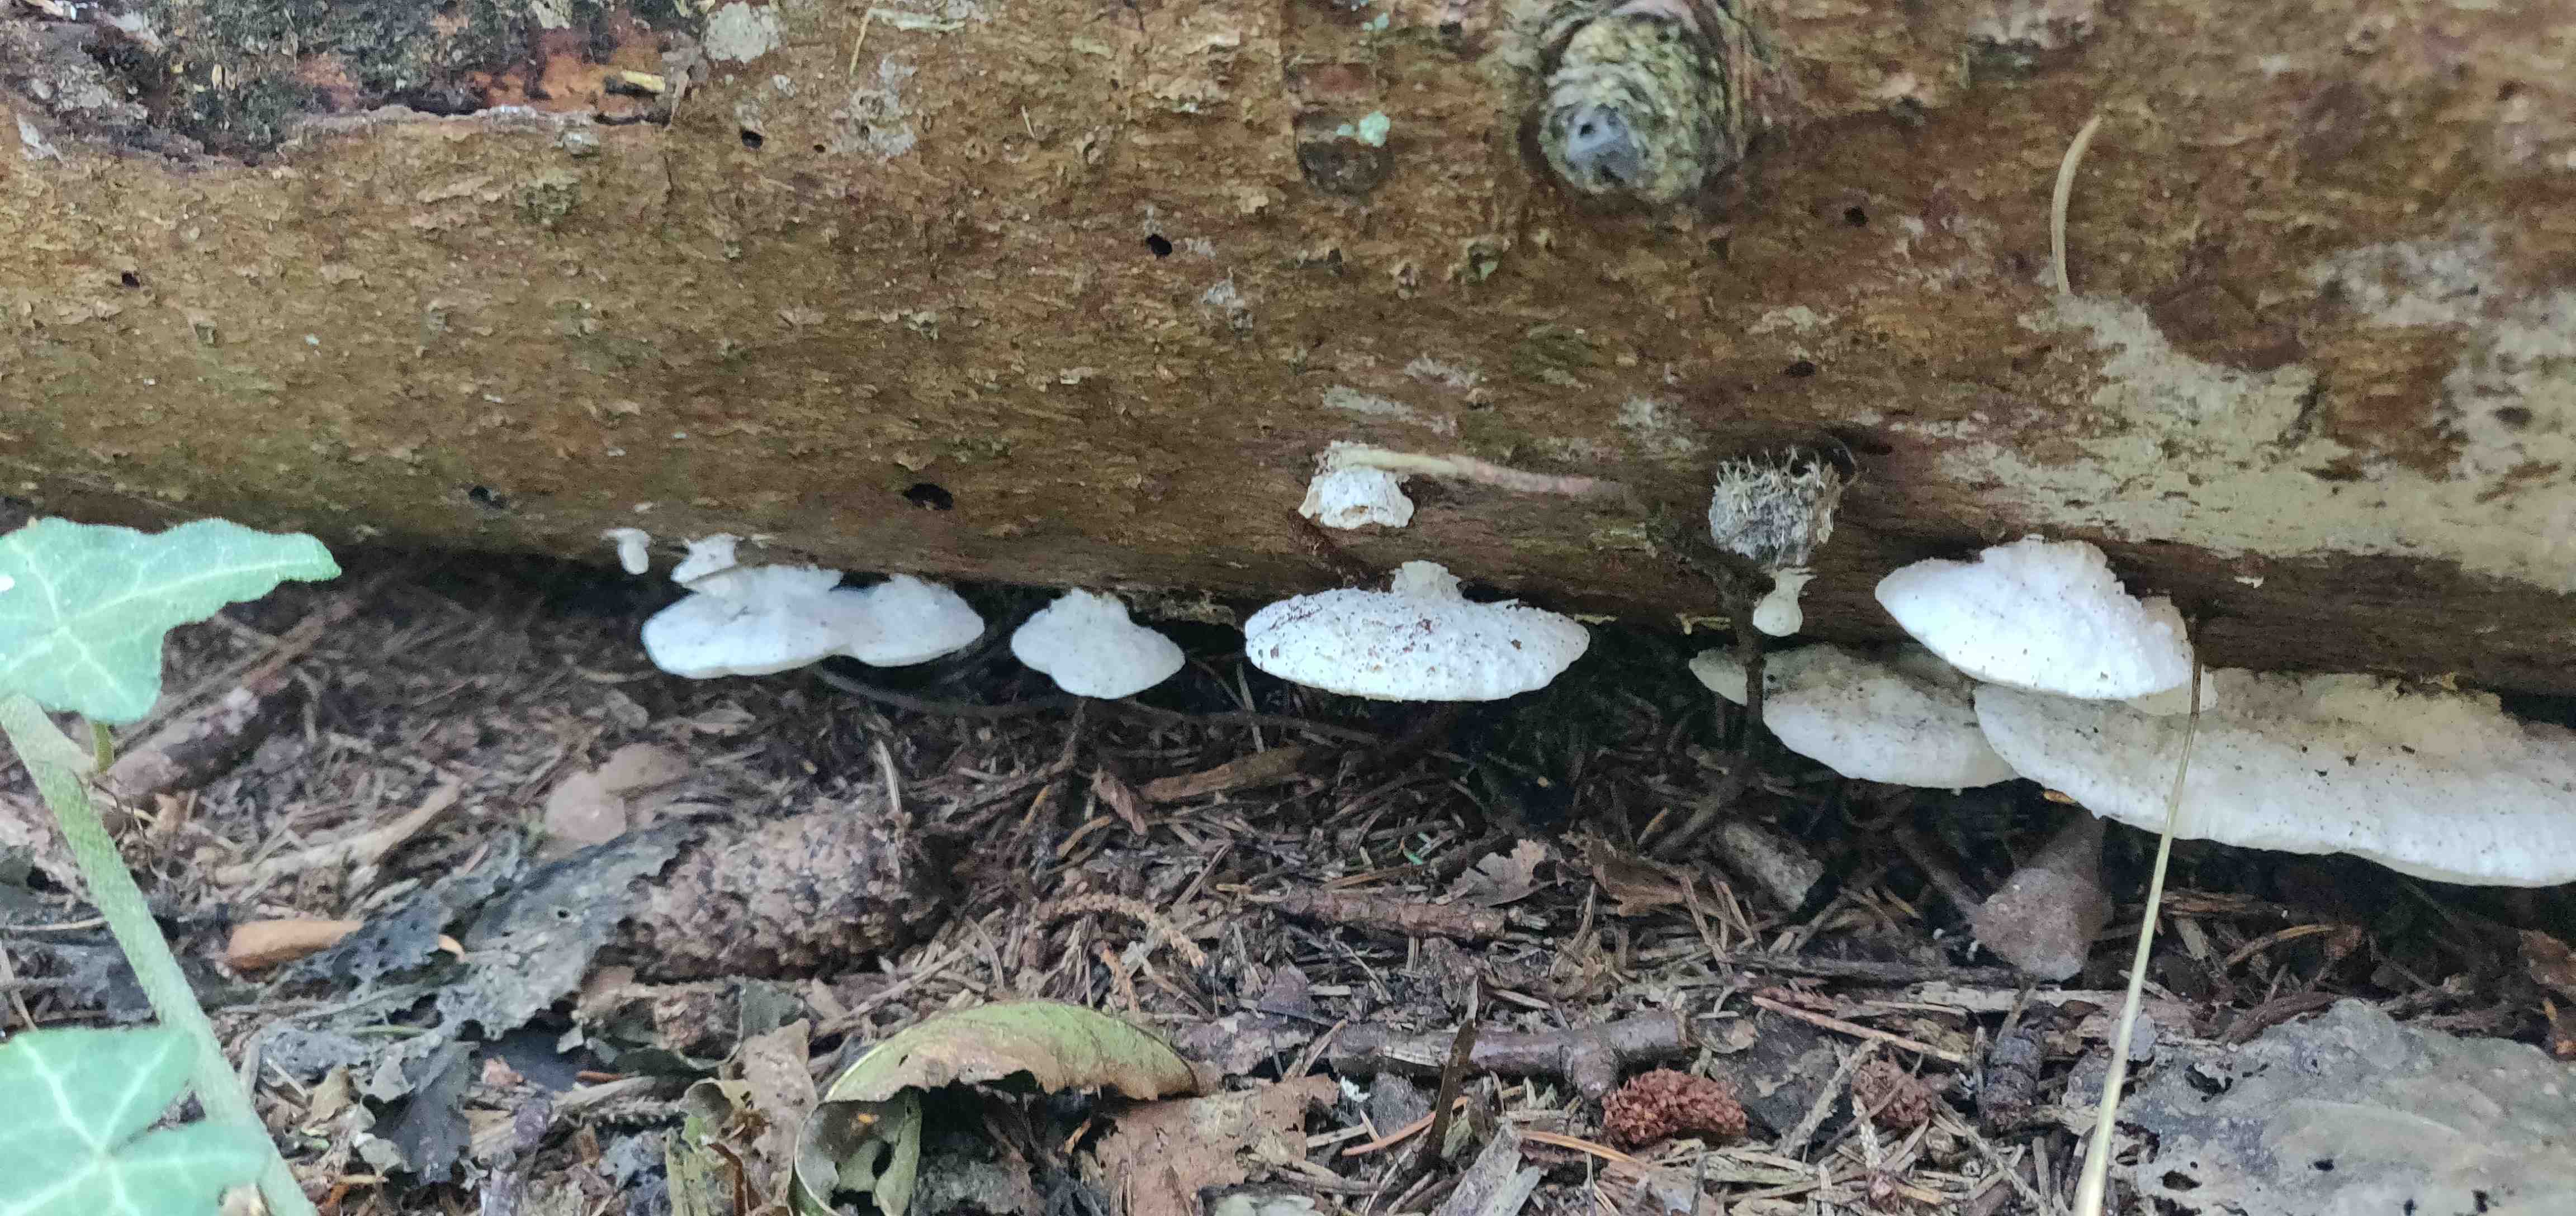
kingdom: Fungi
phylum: Basidiomycota
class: Agaricomycetes
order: Polyporales
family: Fomitopsidaceae
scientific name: Fomitopsidaceae
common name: hovporesvampfamilien
